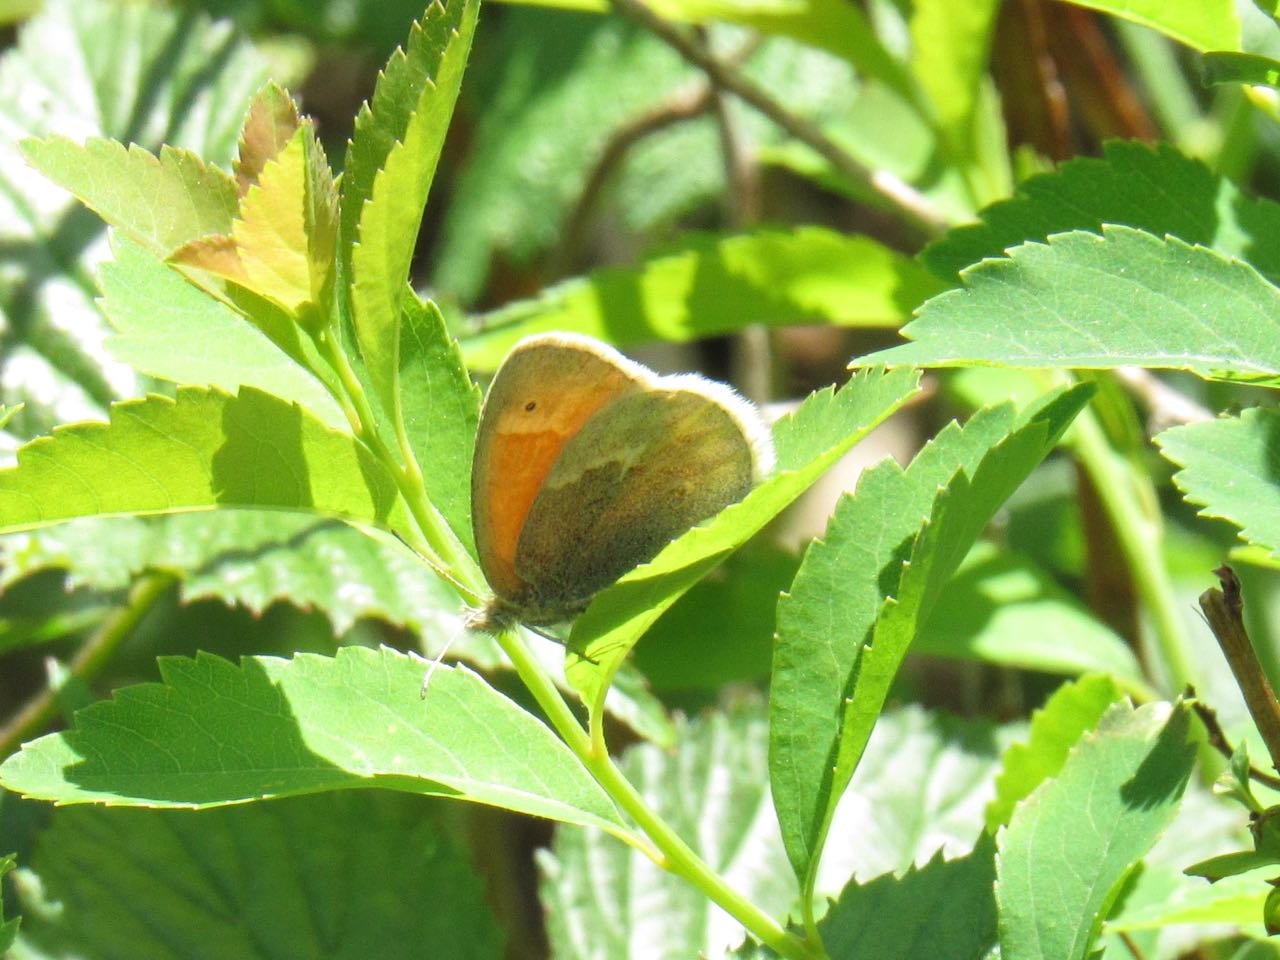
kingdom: Animalia
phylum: Arthropoda
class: Insecta
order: Lepidoptera
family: Nymphalidae
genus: Coenonympha
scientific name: Coenonympha tullia
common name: Large Heath
